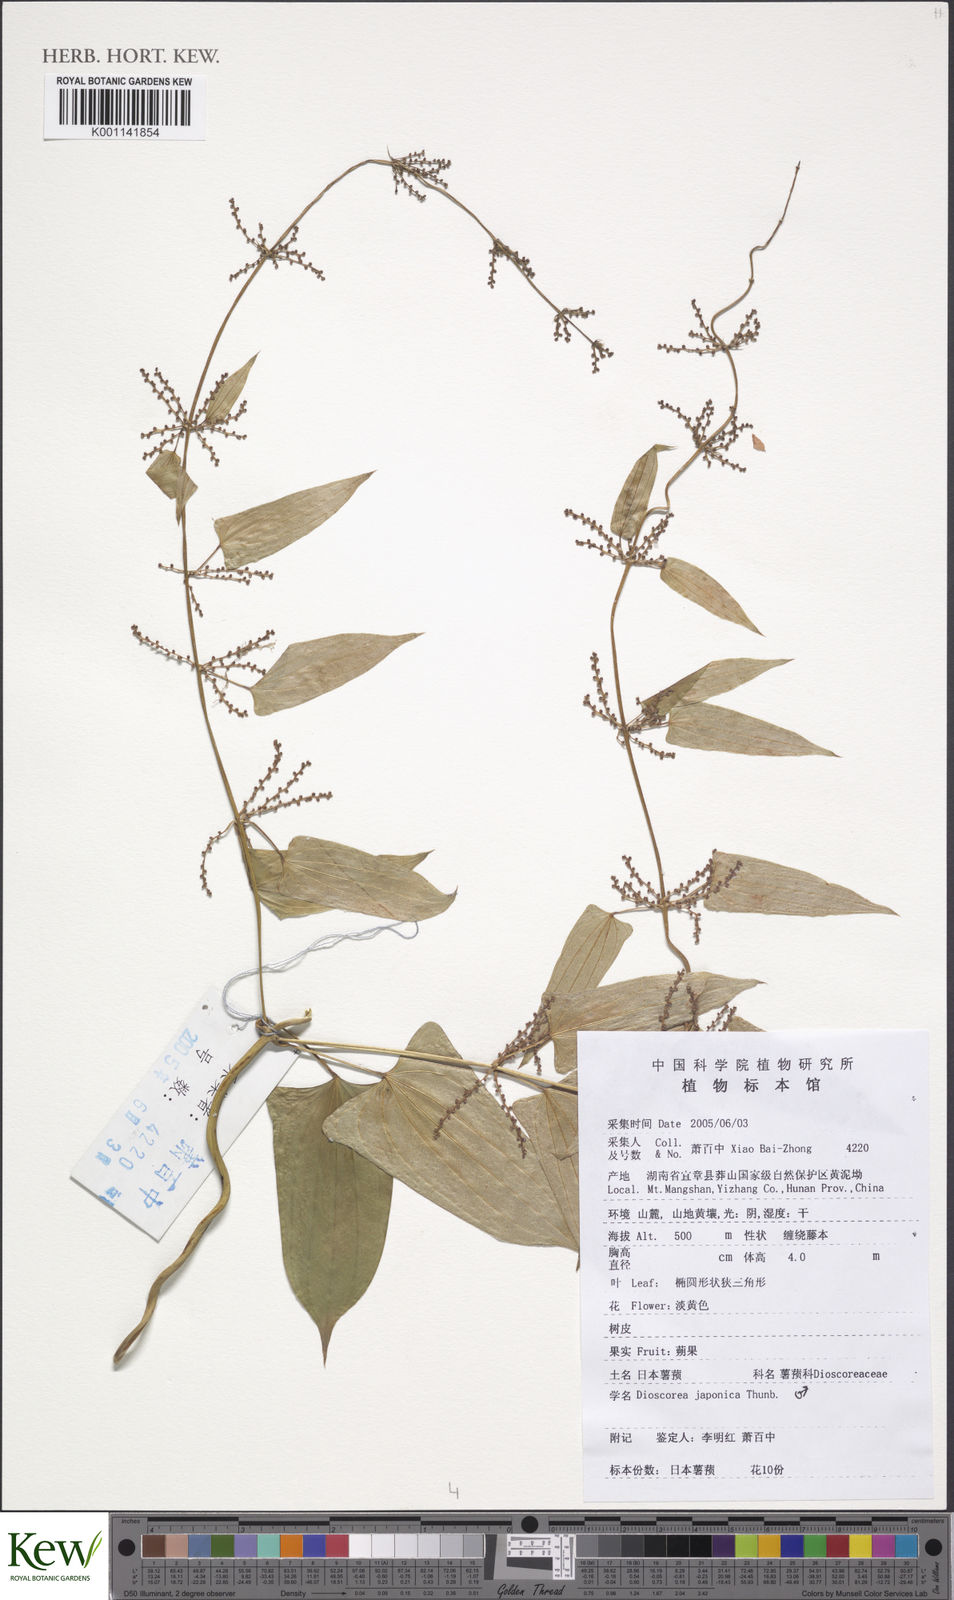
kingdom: Plantae
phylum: Tracheophyta
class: Liliopsida
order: Dioscoreales
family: Dioscoreaceae
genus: Dioscorea
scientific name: Dioscorea japonica
